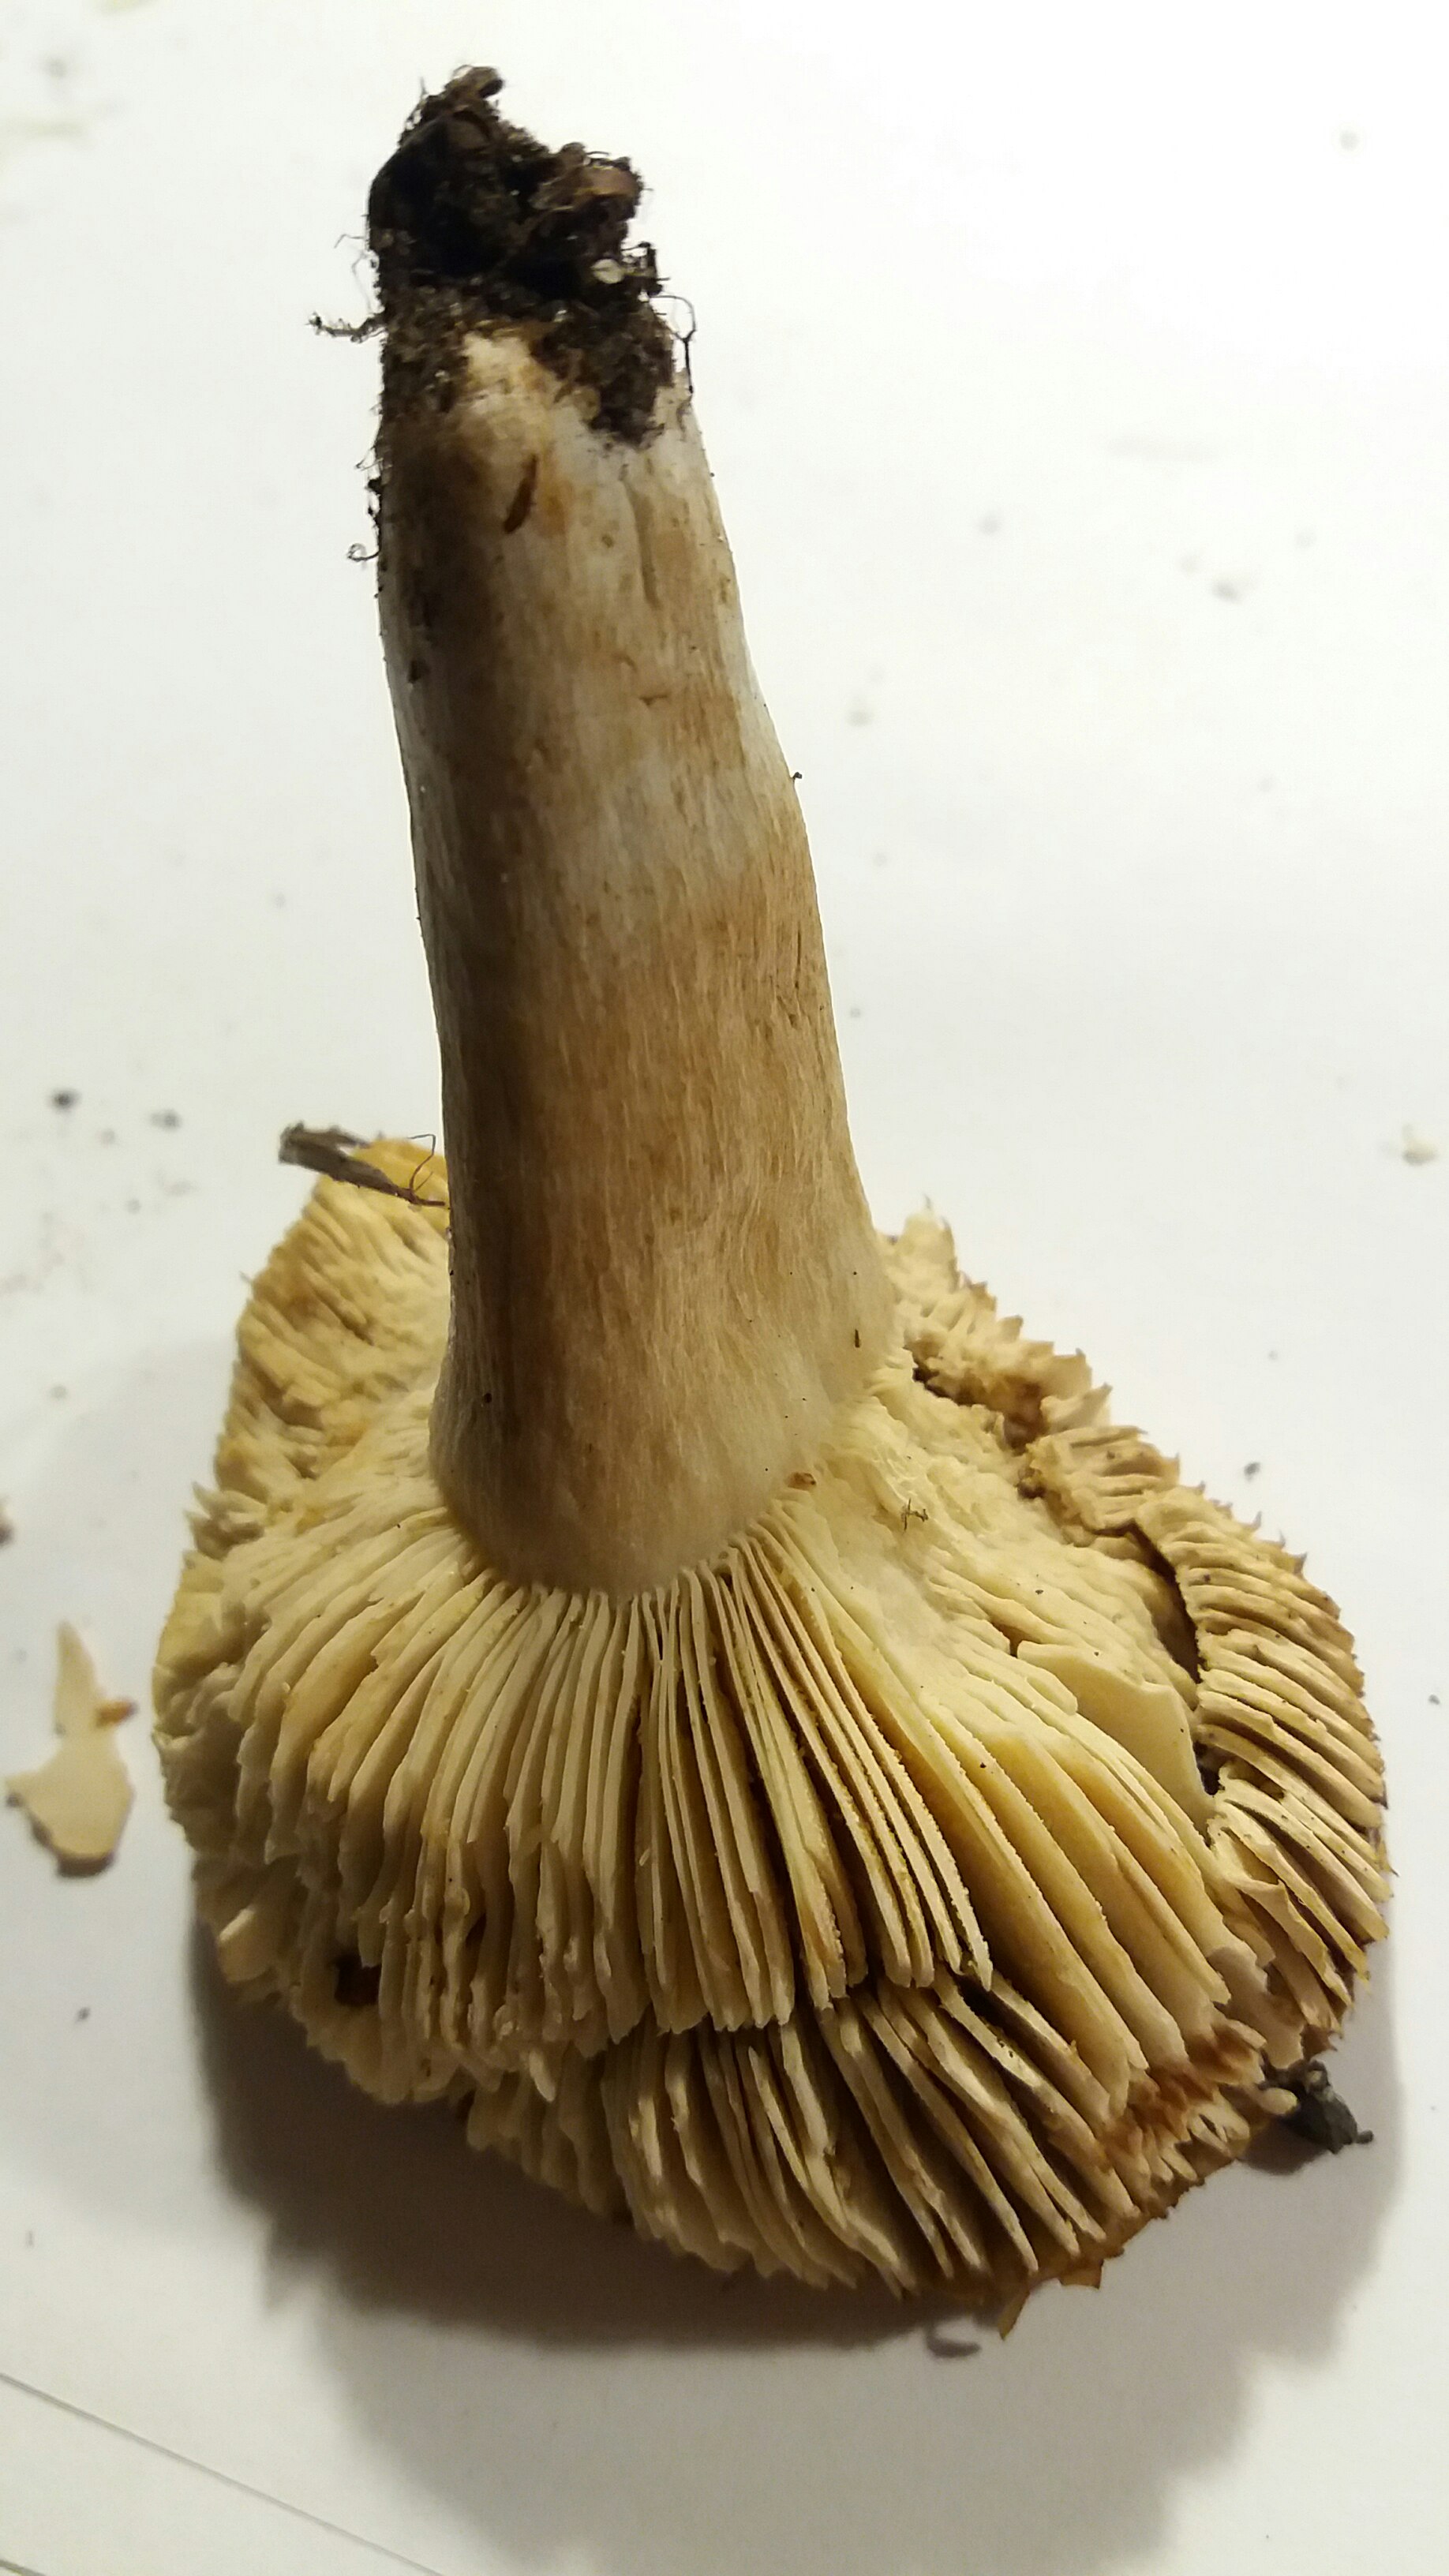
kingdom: Fungi
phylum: Basidiomycota
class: Agaricomycetes
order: Russulales
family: Russulaceae
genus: Russula
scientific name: Russula recondita
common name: mild kam-skørhat
